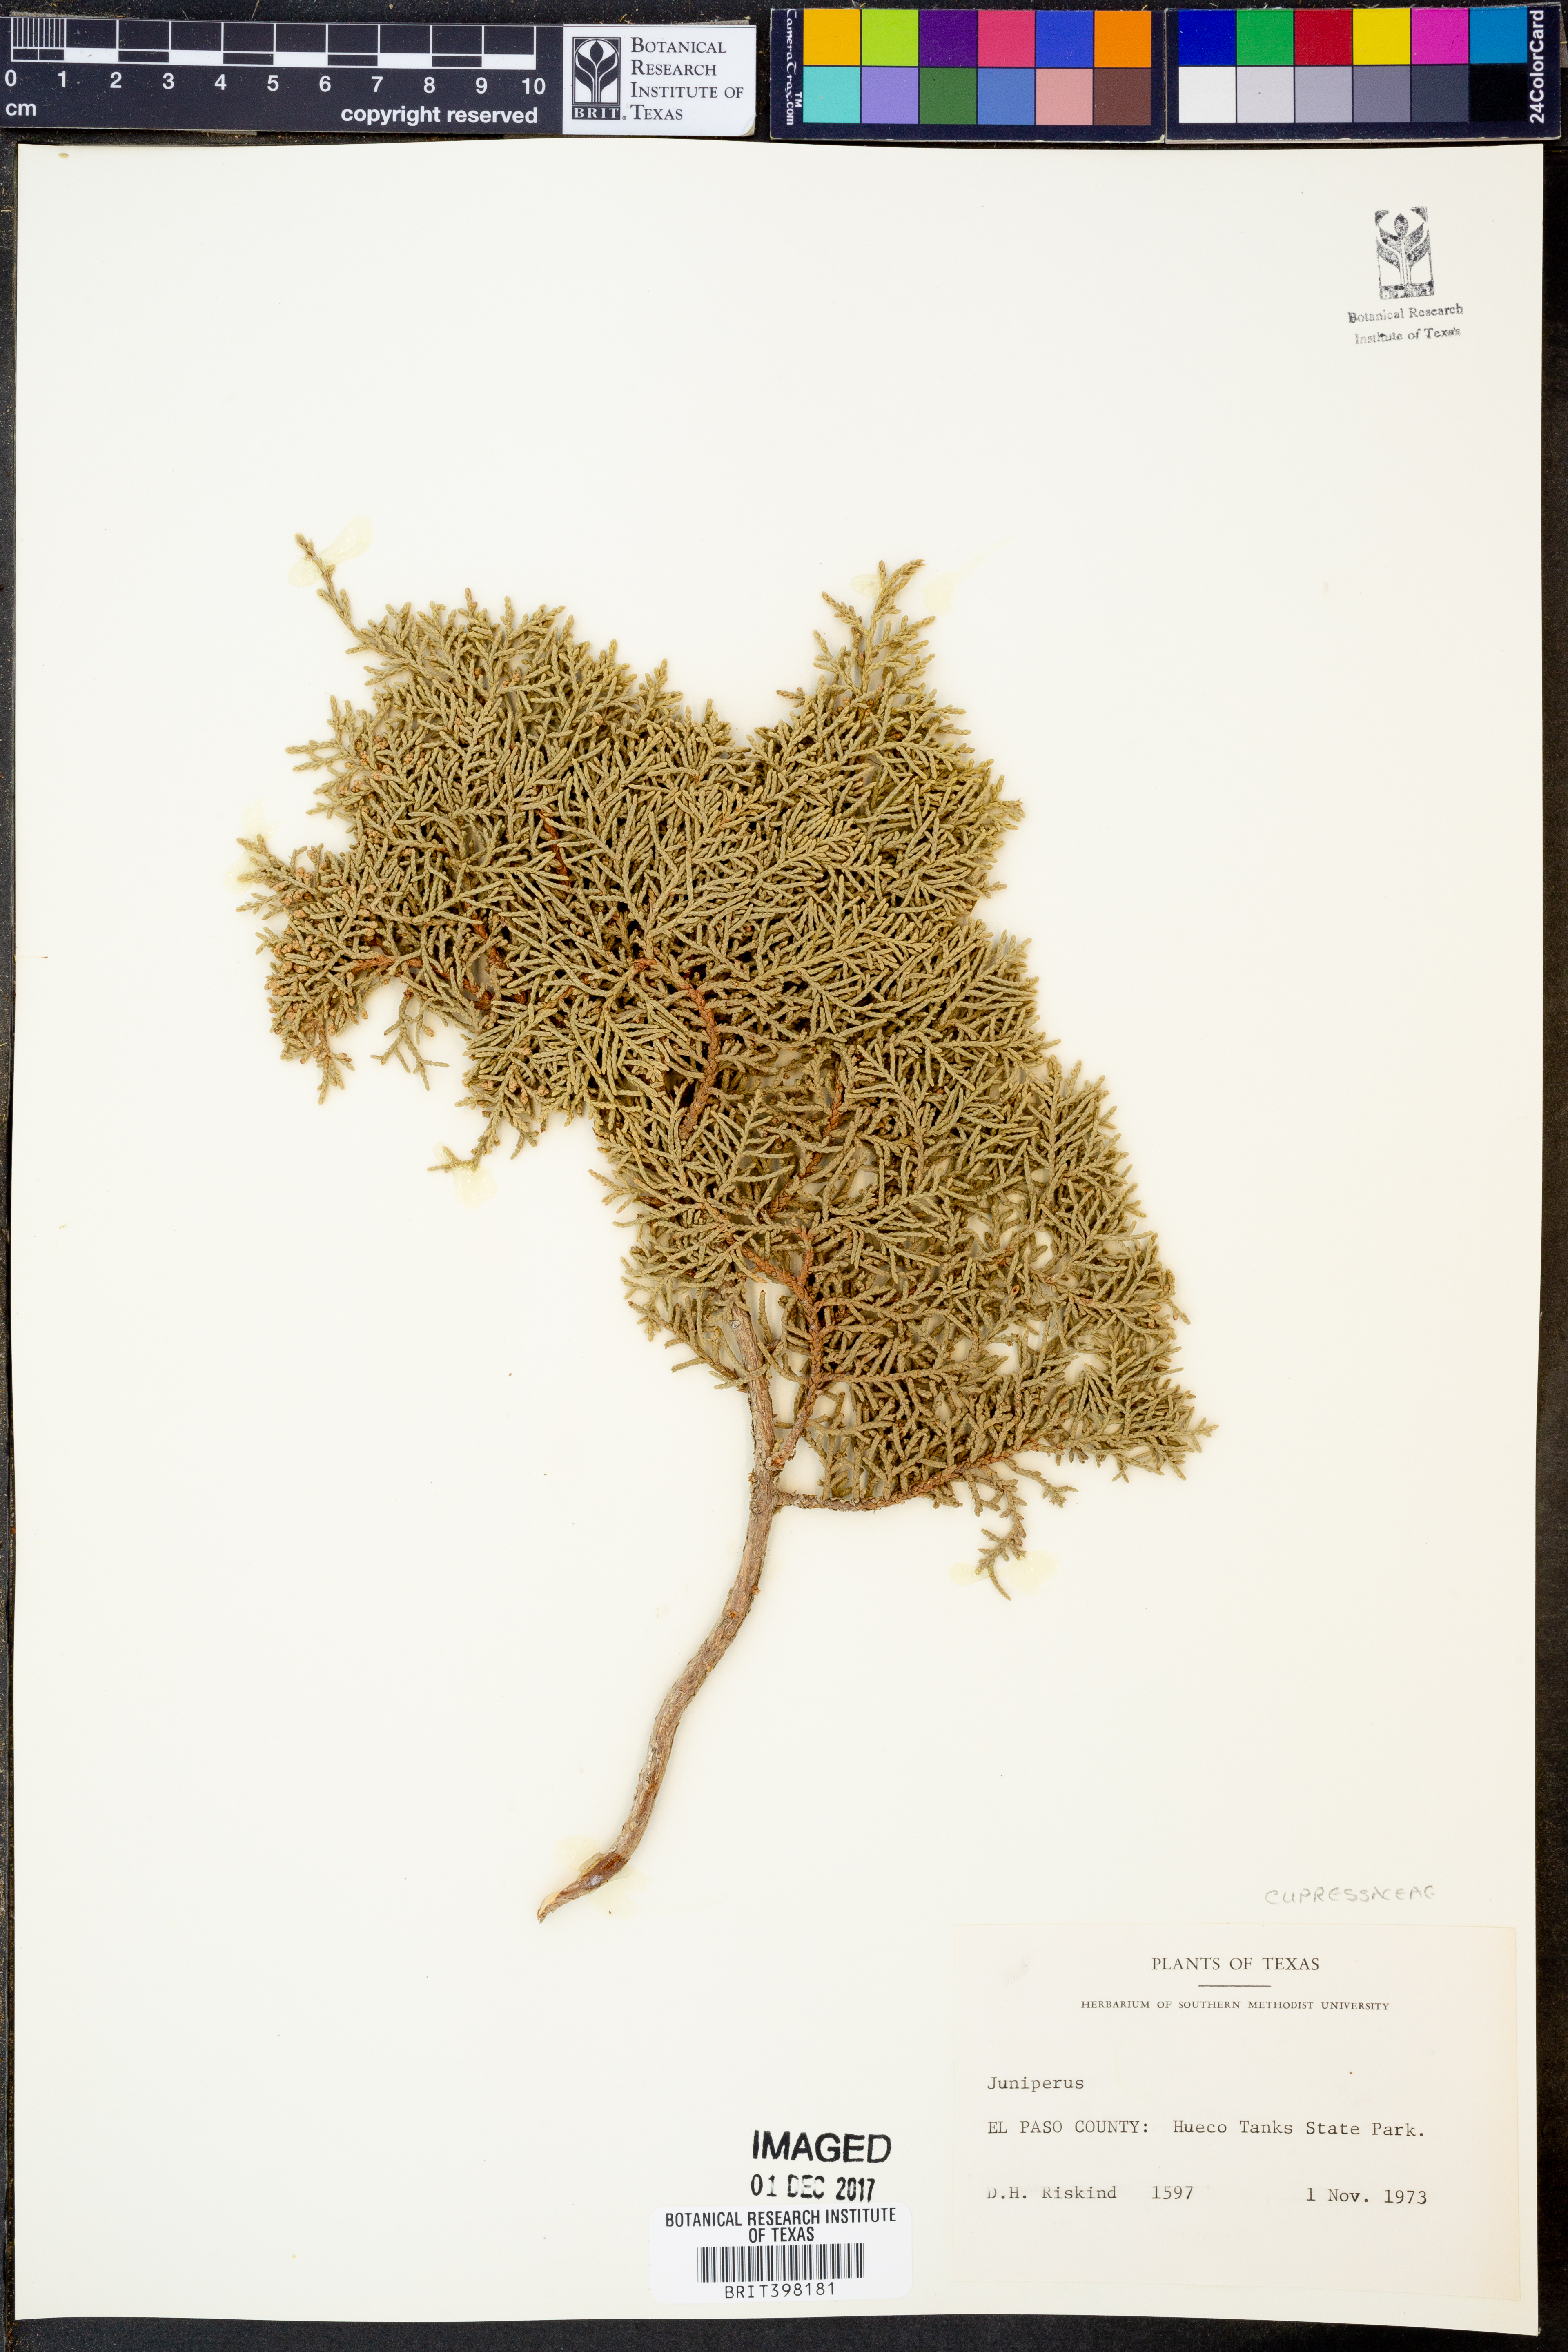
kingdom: Plantae
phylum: Tracheophyta
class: Pinopsida
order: Pinales
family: Cupressaceae
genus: Juniperus
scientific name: Juniperus
